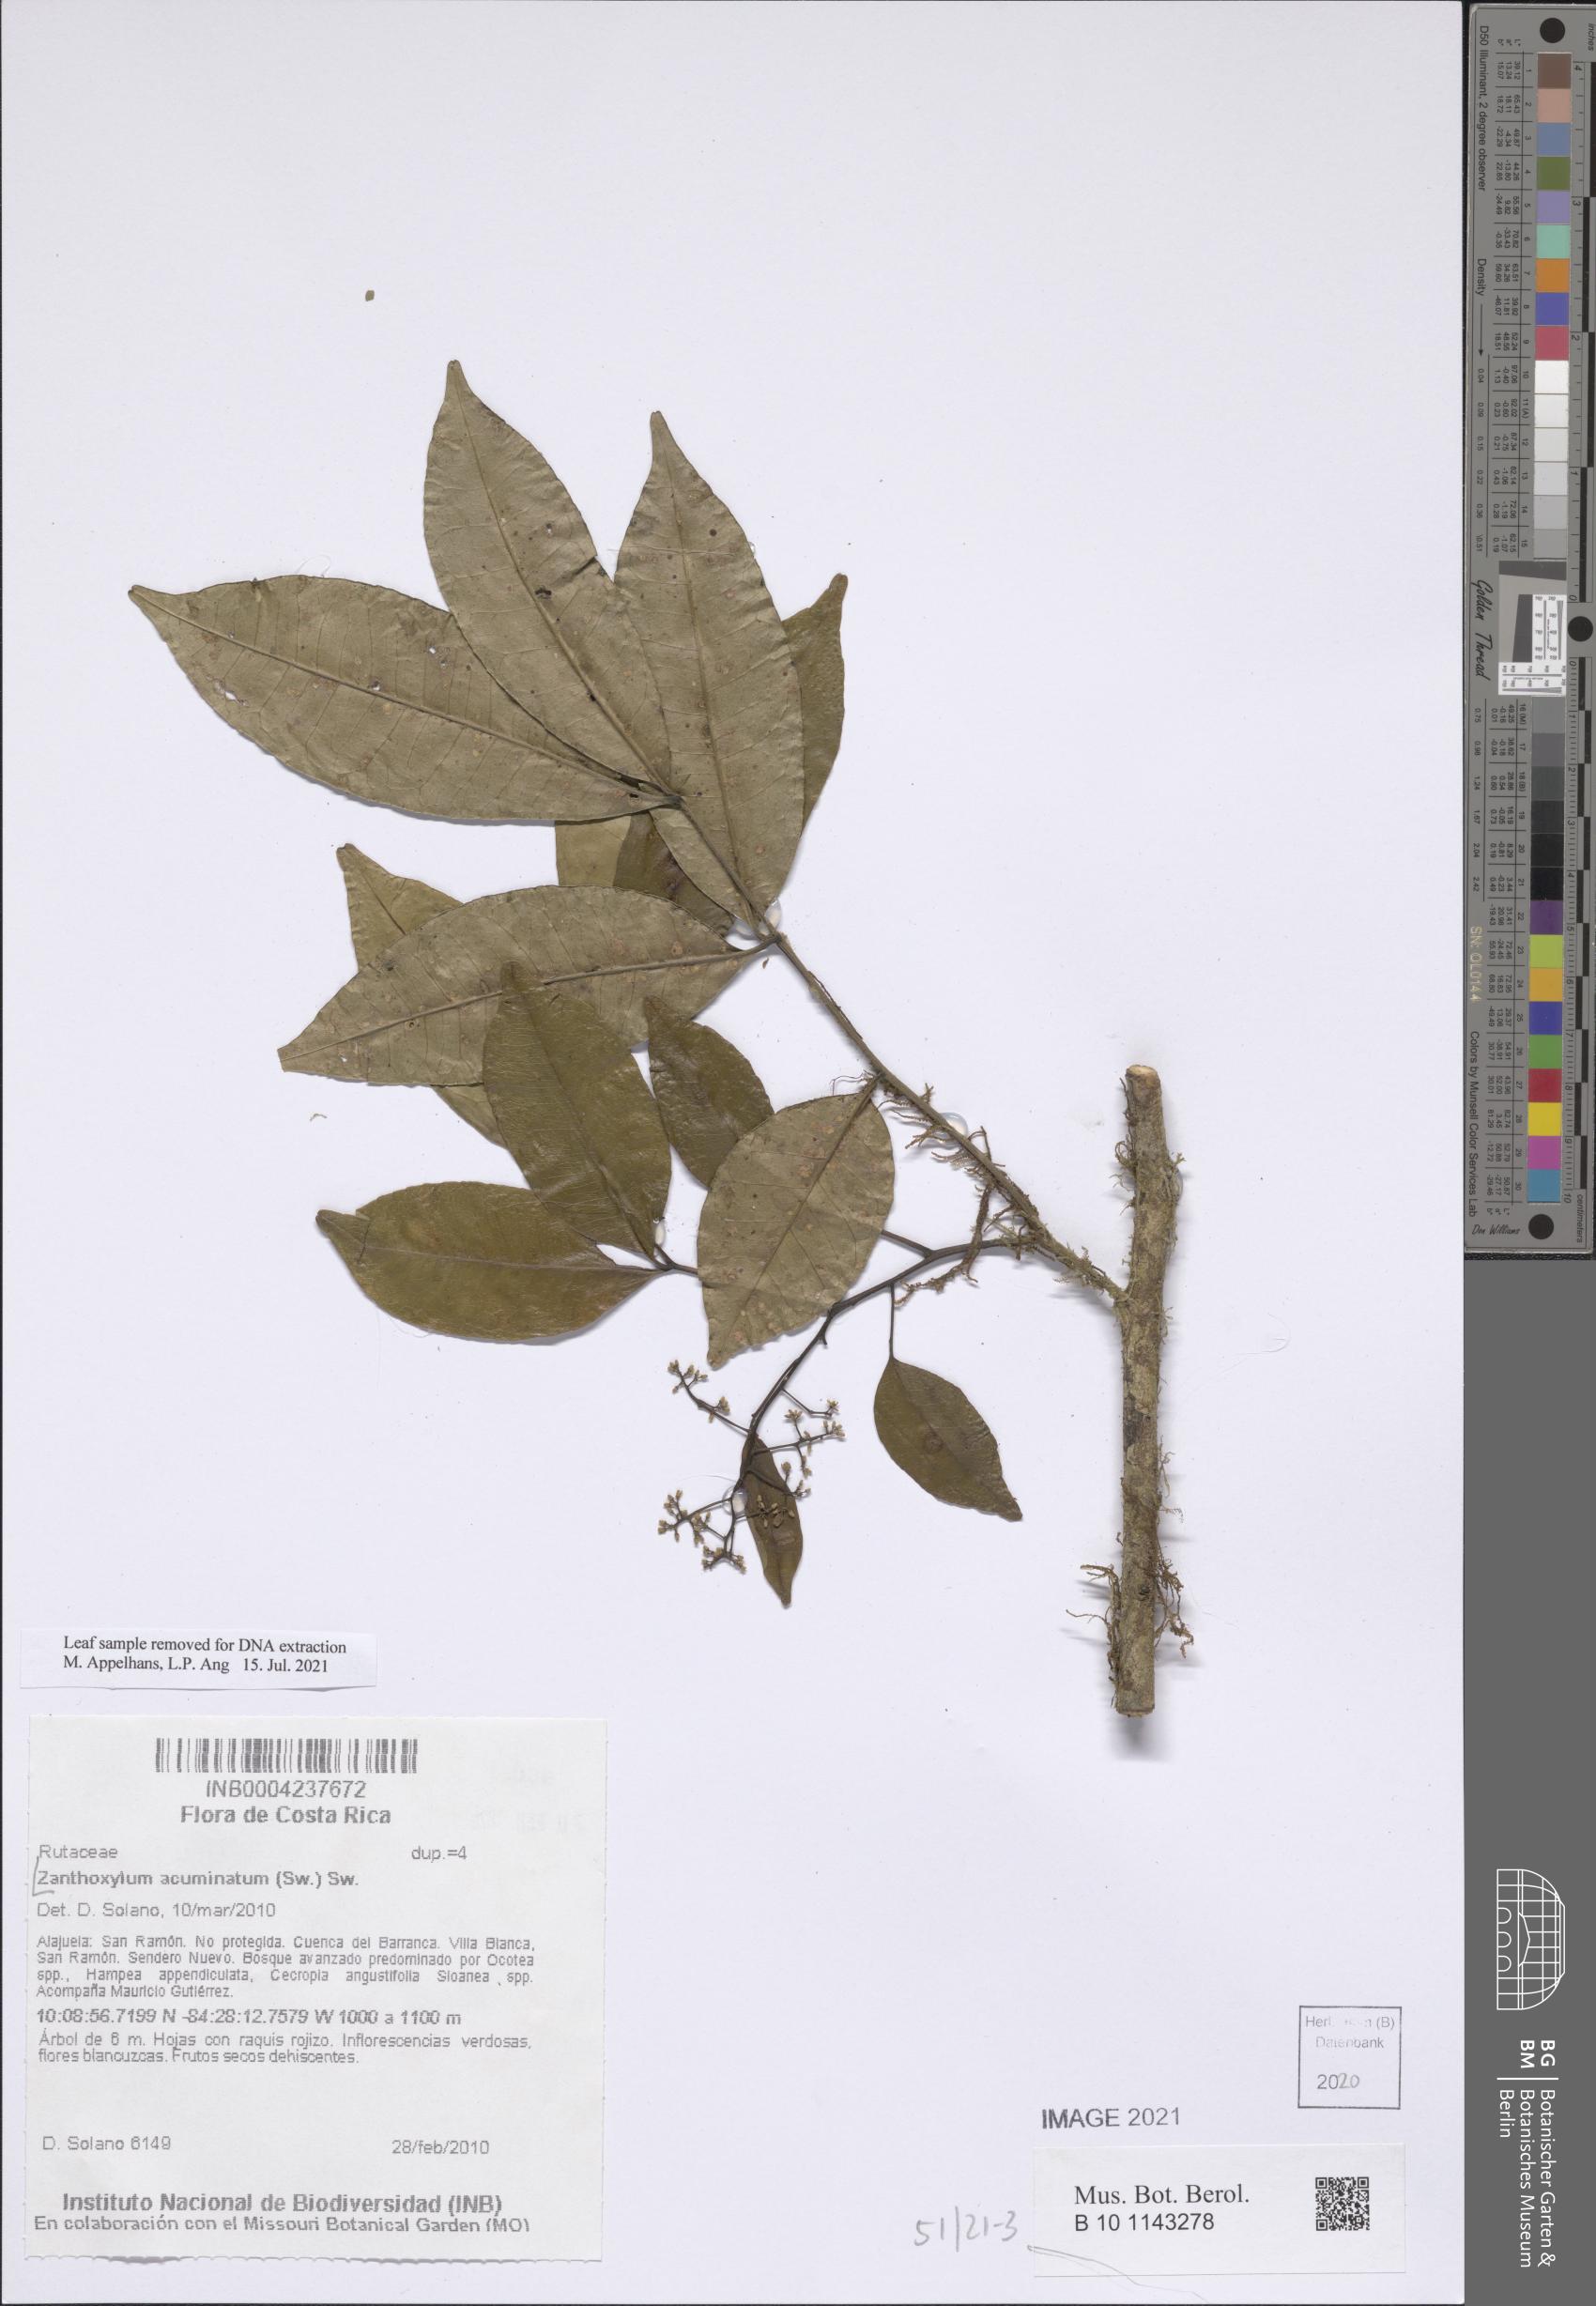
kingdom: Plantae
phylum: Tracheophyta
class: Magnoliopsida
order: Sapindales
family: Rutaceae
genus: Zanthoxylum
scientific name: Zanthoxylum acuminatum
